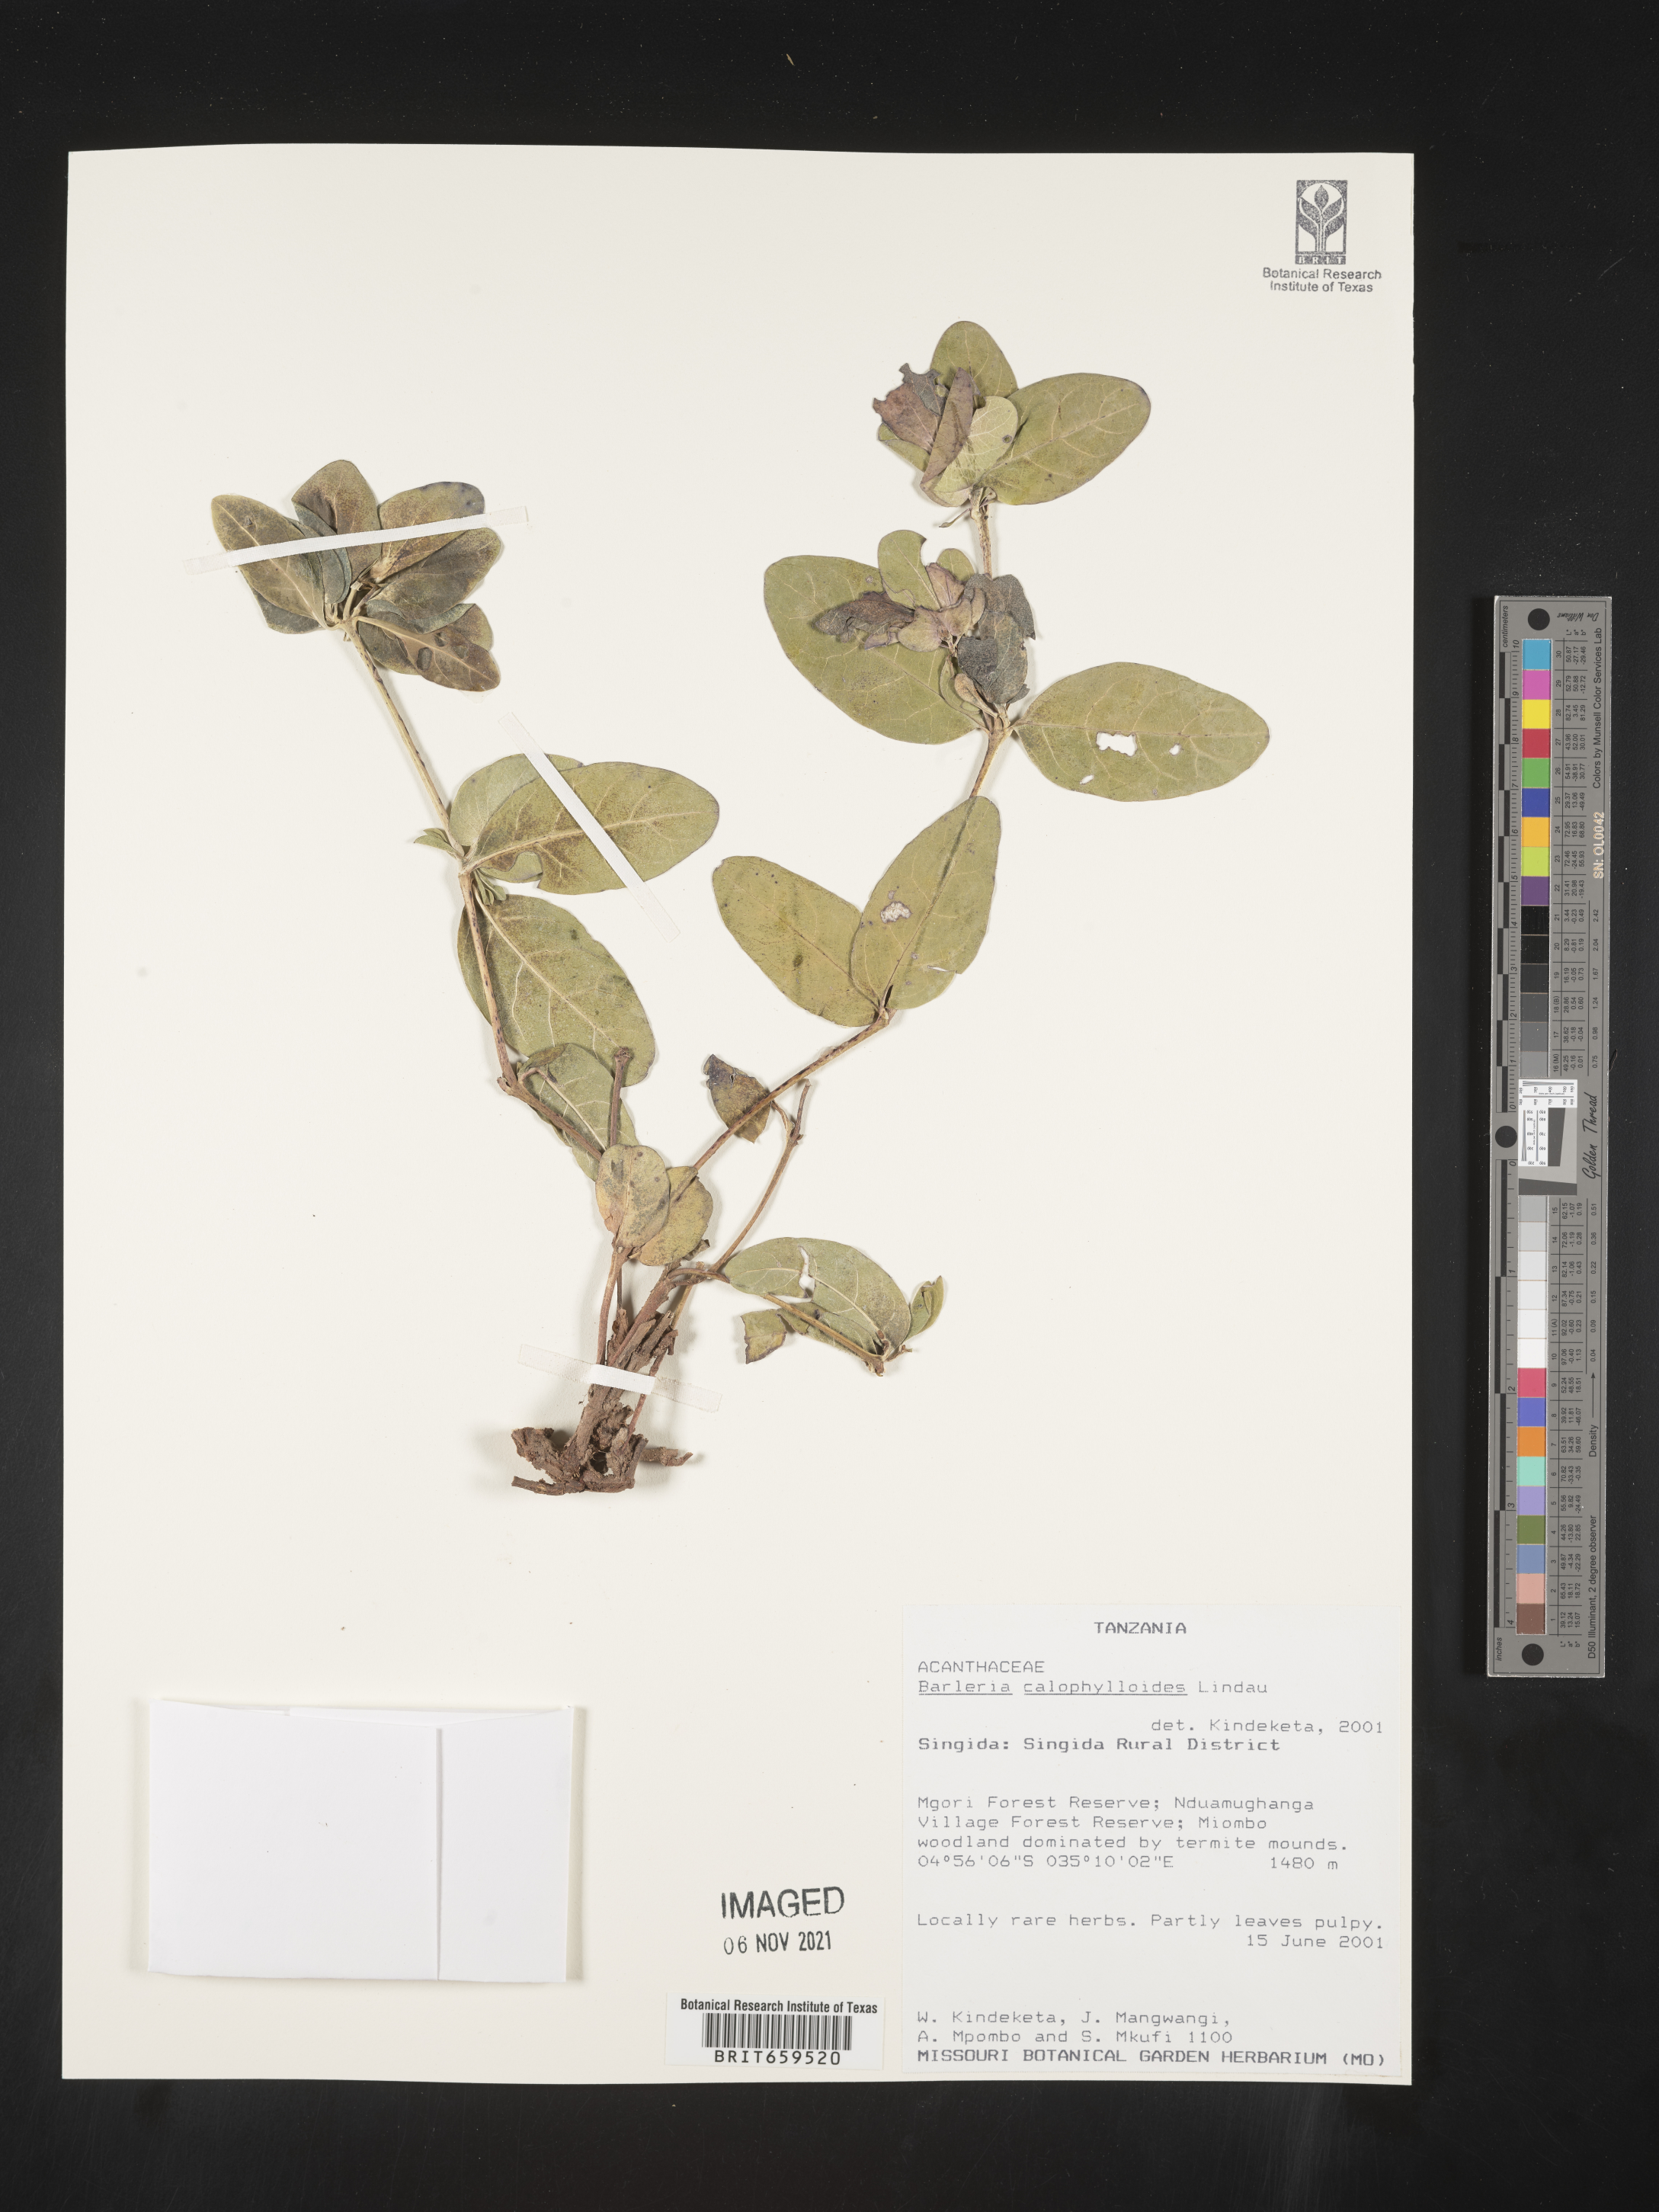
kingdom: Plantae
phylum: Tracheophyta
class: Magnoliopsida
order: Lamiales
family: Acanthaceae
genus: Barleria
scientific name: Barleria calophylloides
